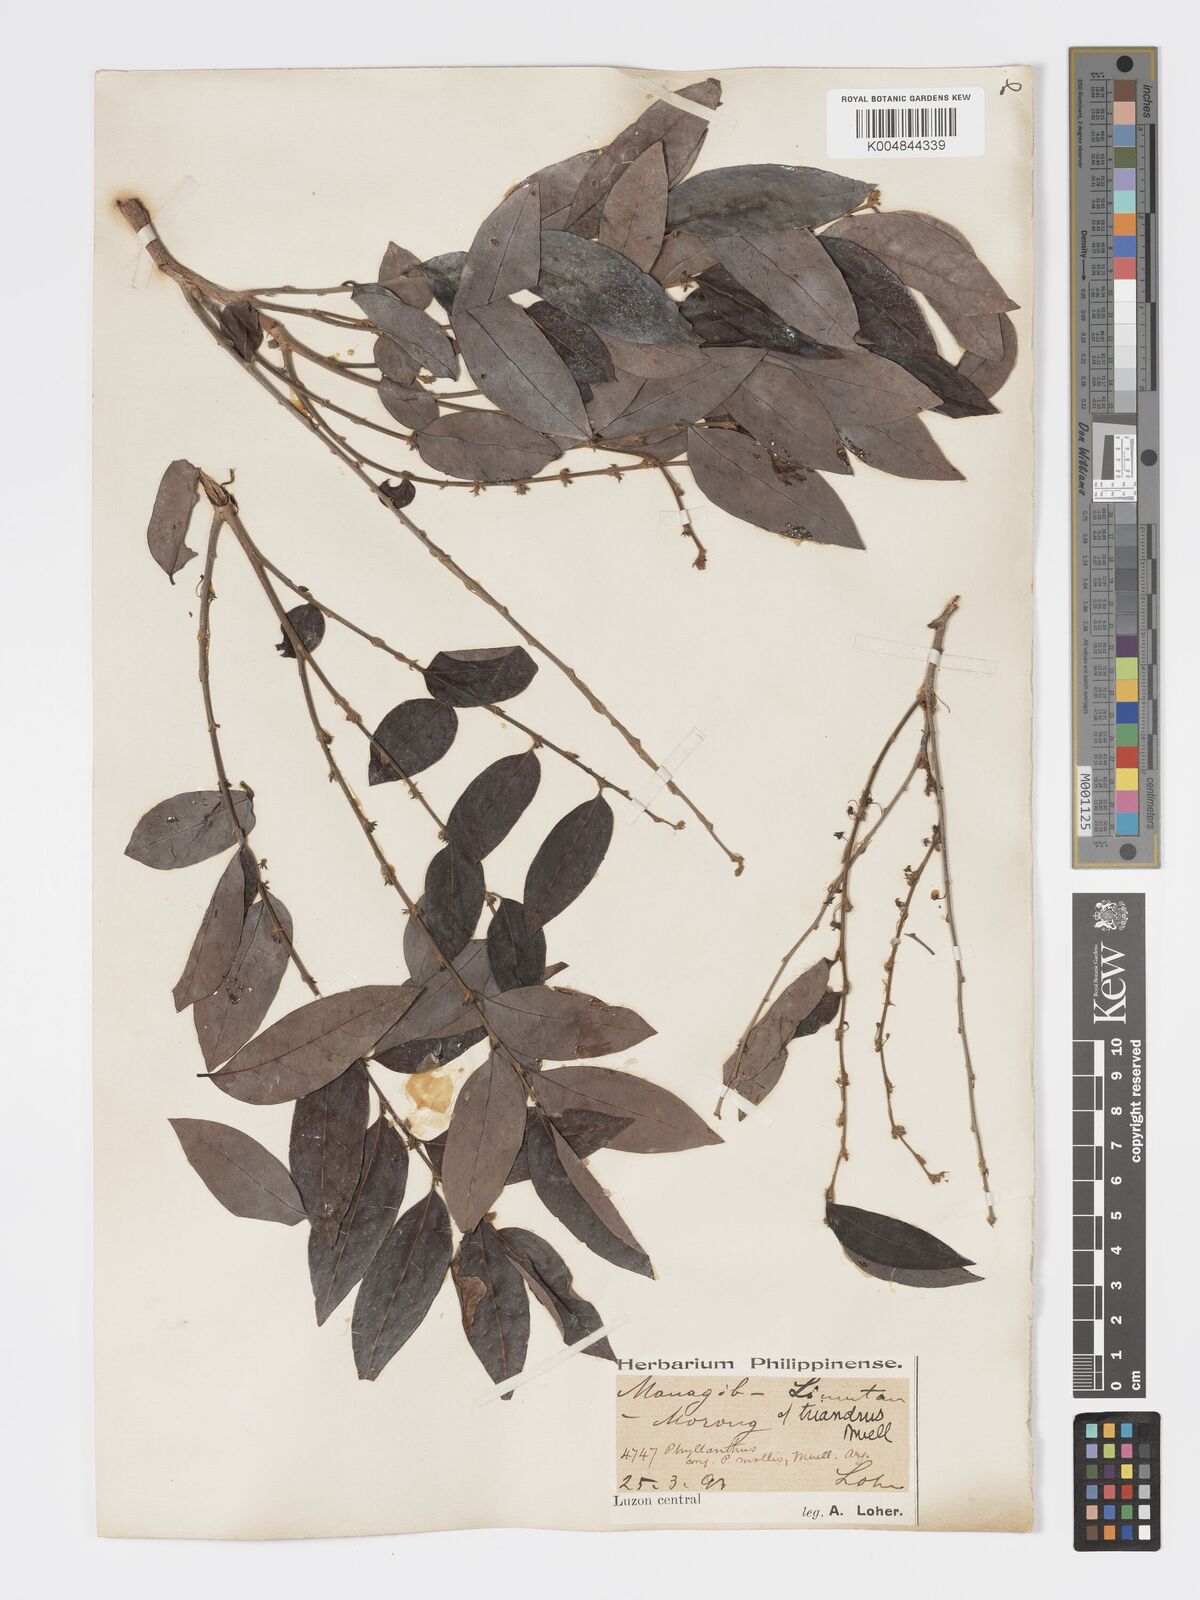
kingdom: Plantae
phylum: Tracheophyta
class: Magnoliopsida
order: Malpighiales
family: Phyllanthaceae
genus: Glochidion
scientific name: Glochidion triandrum
